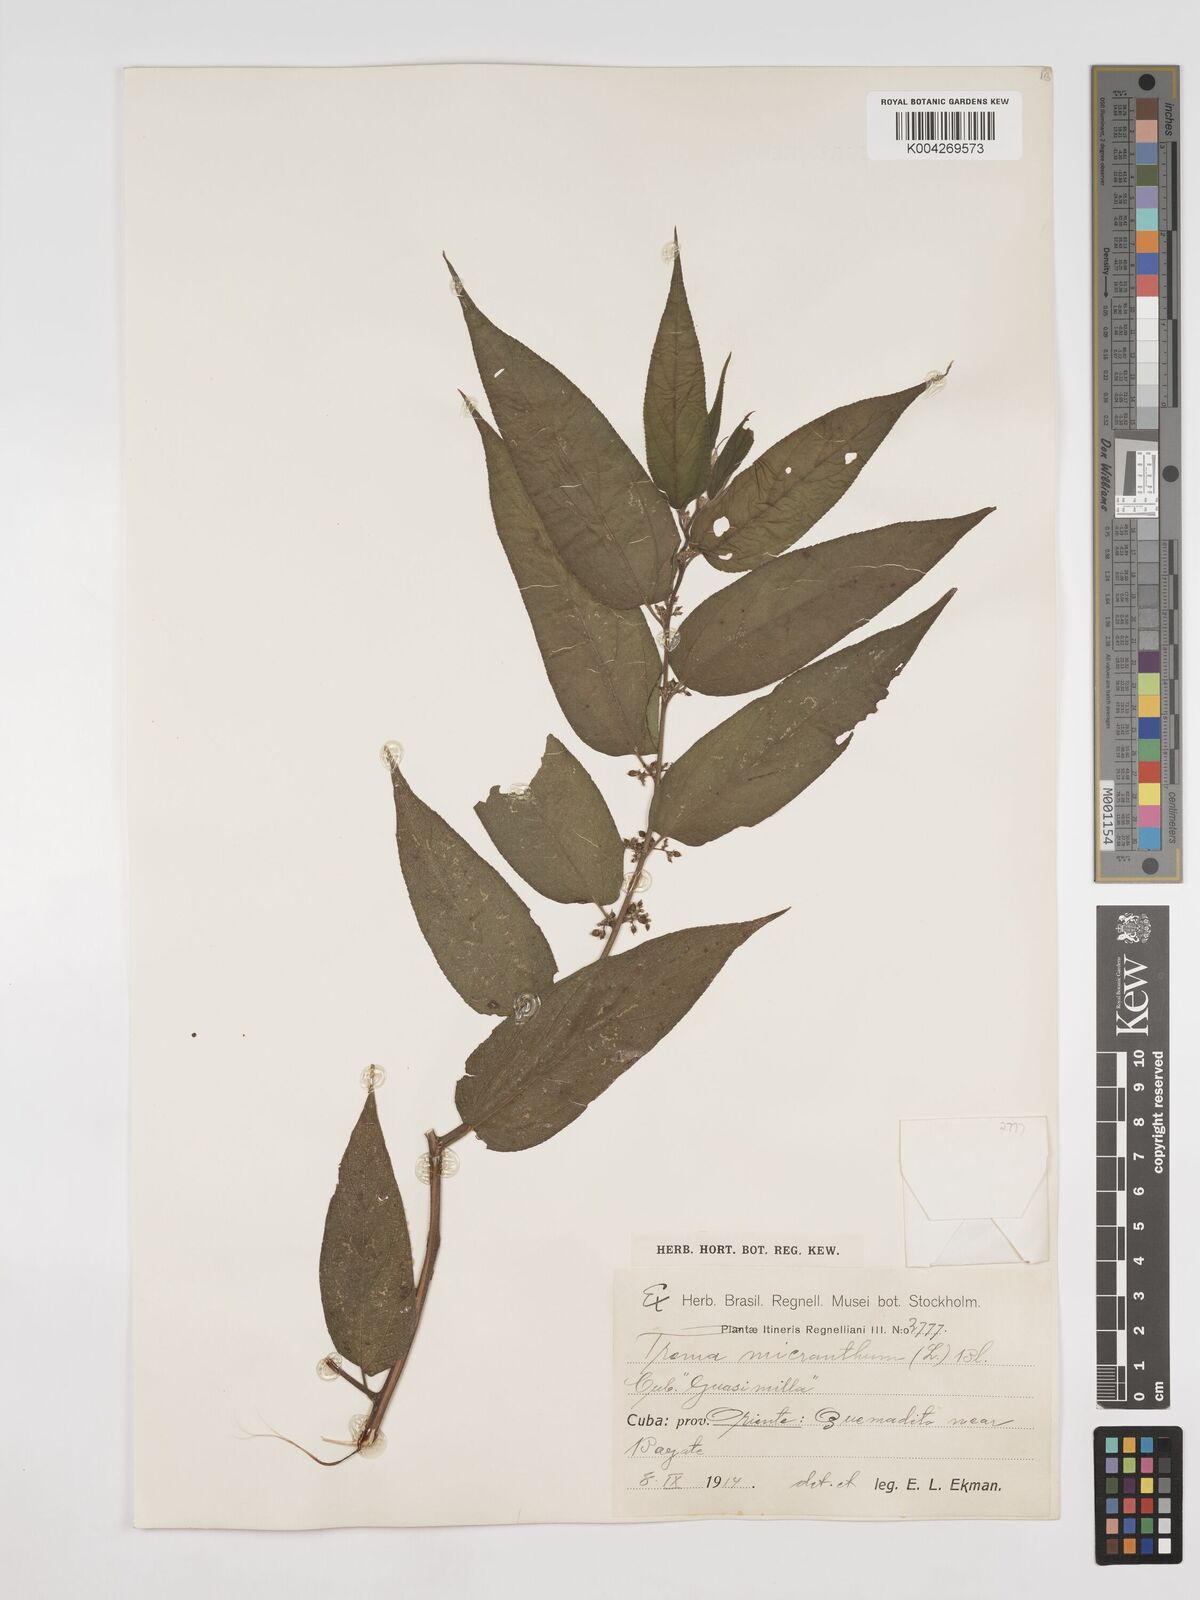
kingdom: Plantae
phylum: Tracheophyta
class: Magnoliopsida
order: Rosales
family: Cannabaceae
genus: Trema
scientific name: Trema micranthum
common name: Jamaican nettletree
